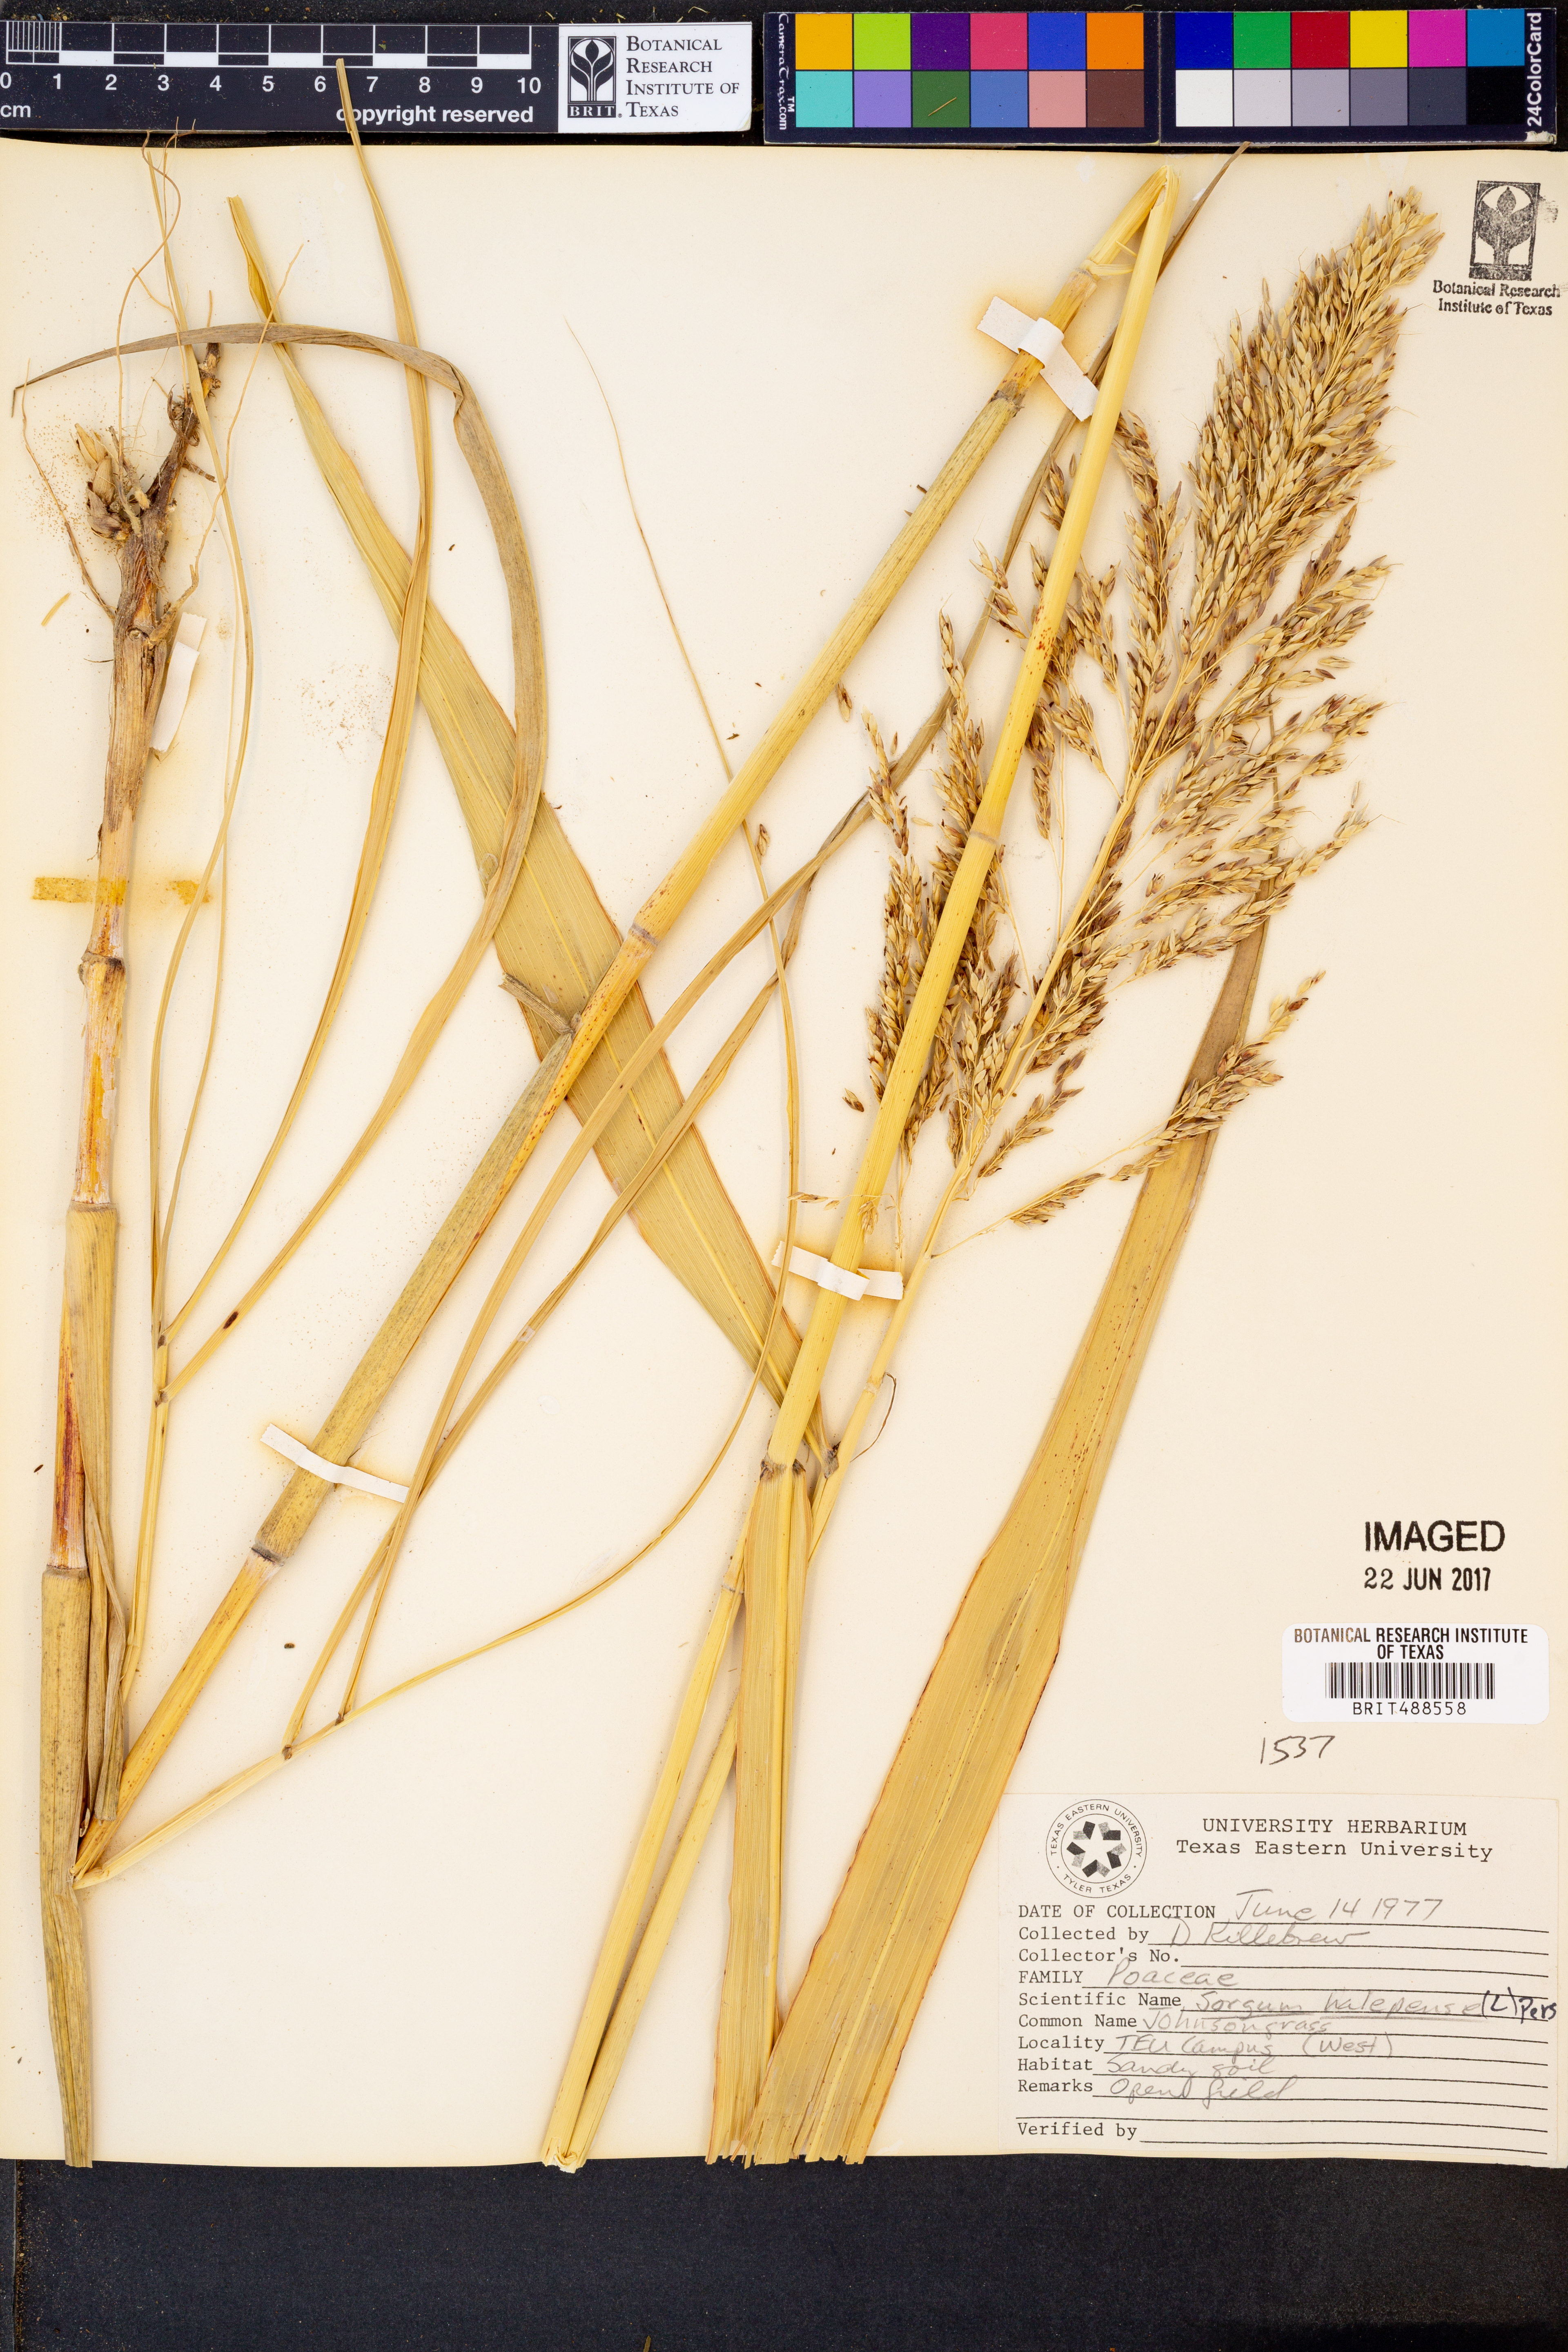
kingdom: Plantae
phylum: Tracheophyta
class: Liliopsida
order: Poales
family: Poaceae
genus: Sorghum
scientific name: Sorghum halepense
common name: Johnson-grass
